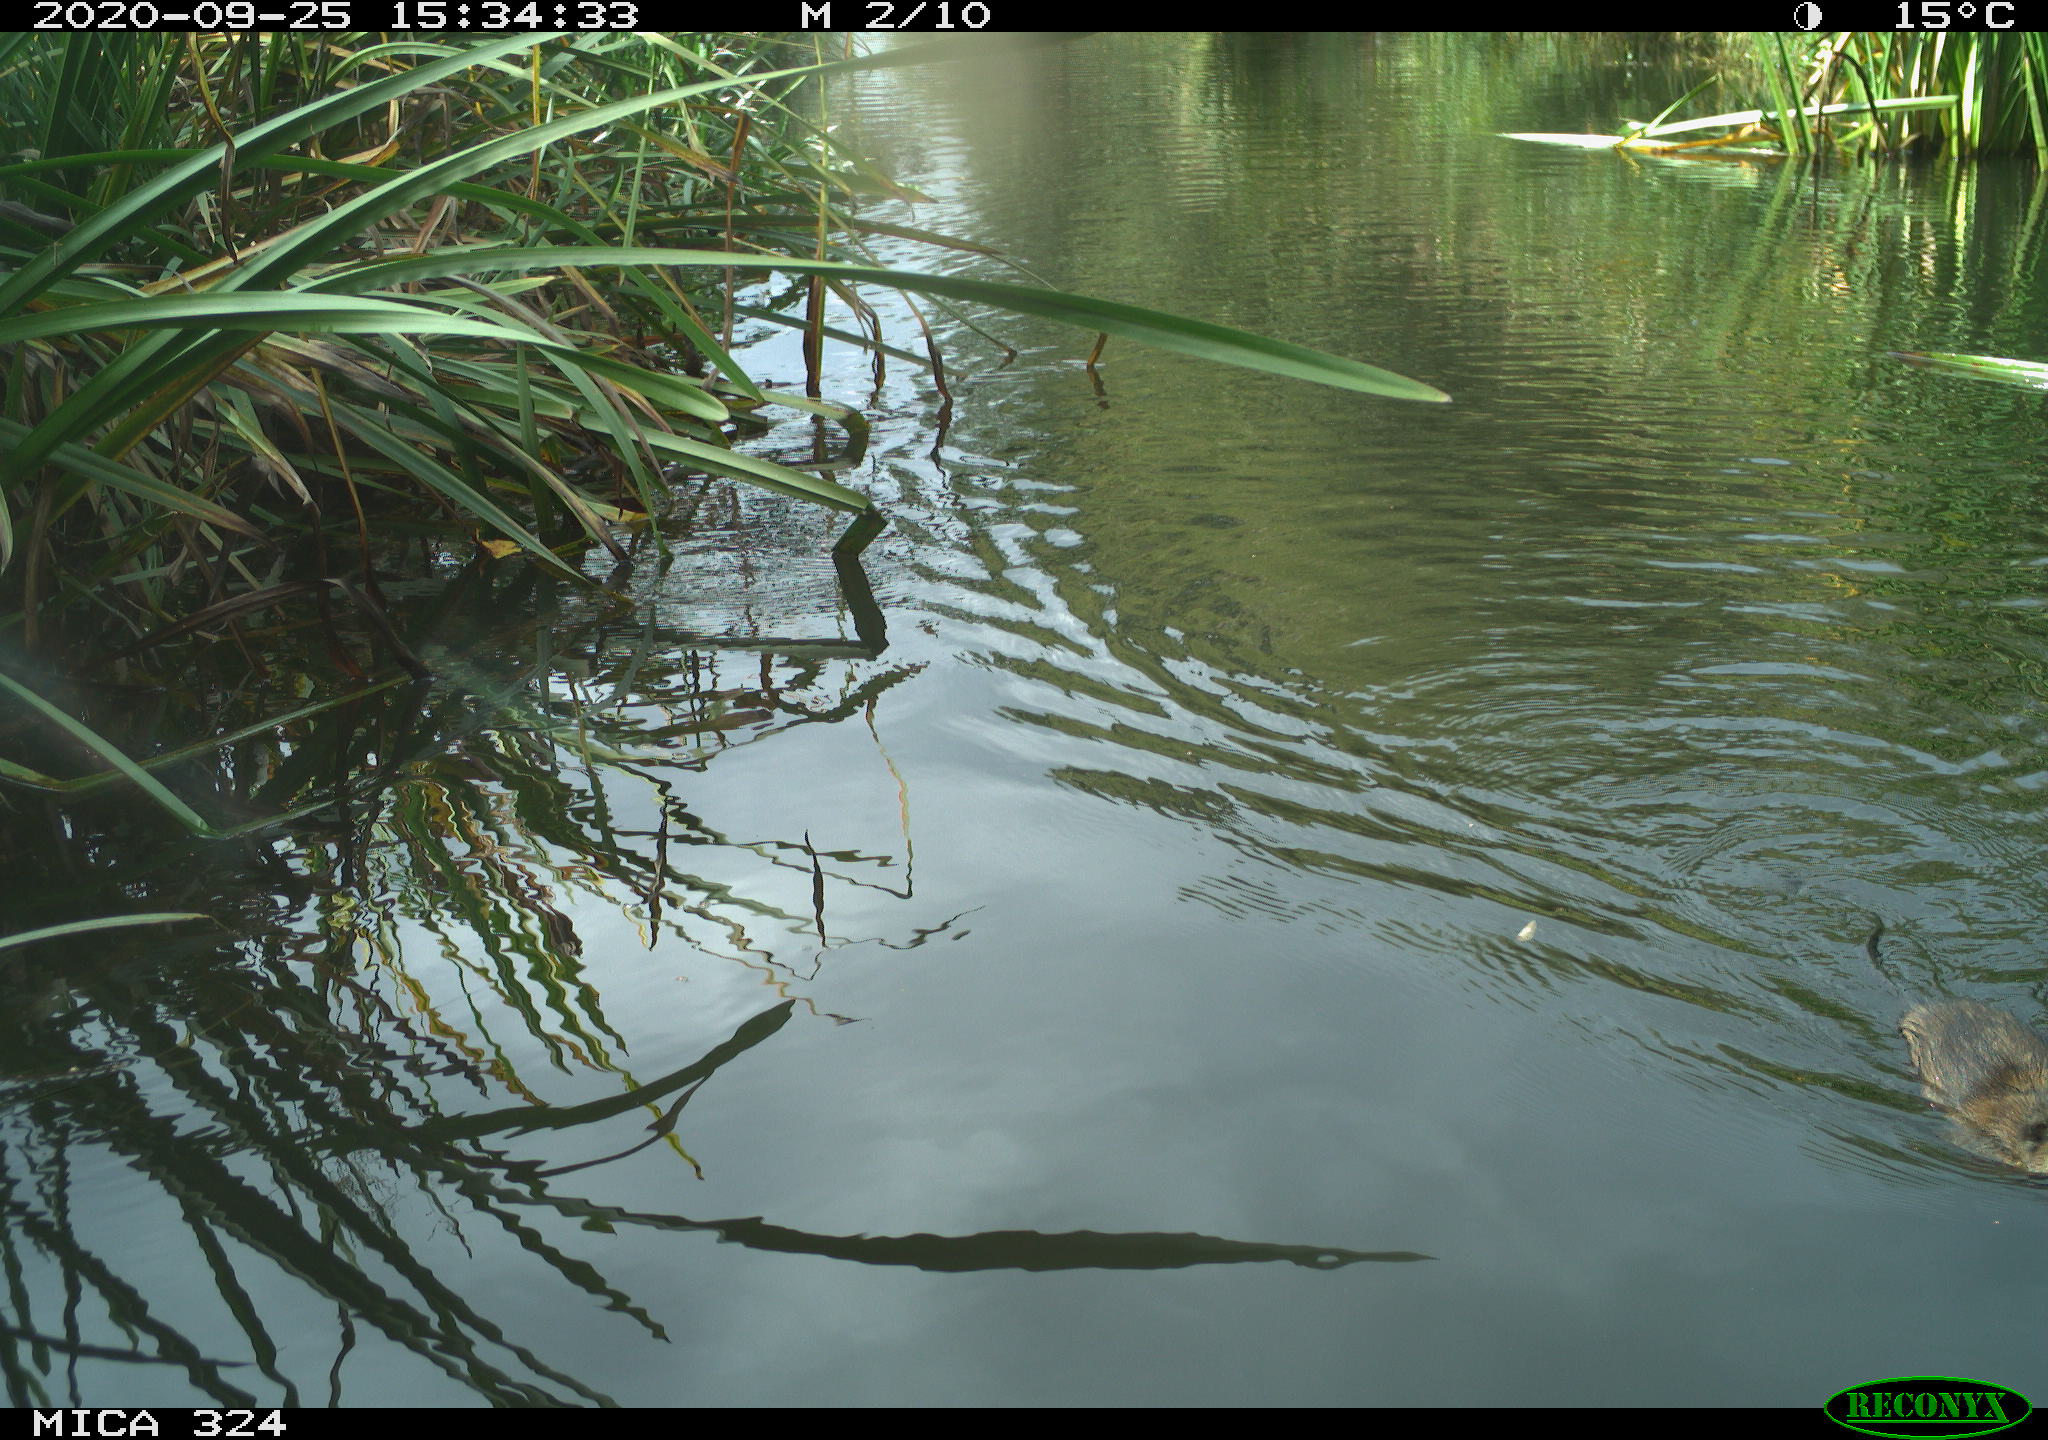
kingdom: Animalia
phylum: Chordata
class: Mammalia
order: Rodentia
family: Cricetidae
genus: Ondatra
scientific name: Ondatra zibethicus
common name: Muskrat
